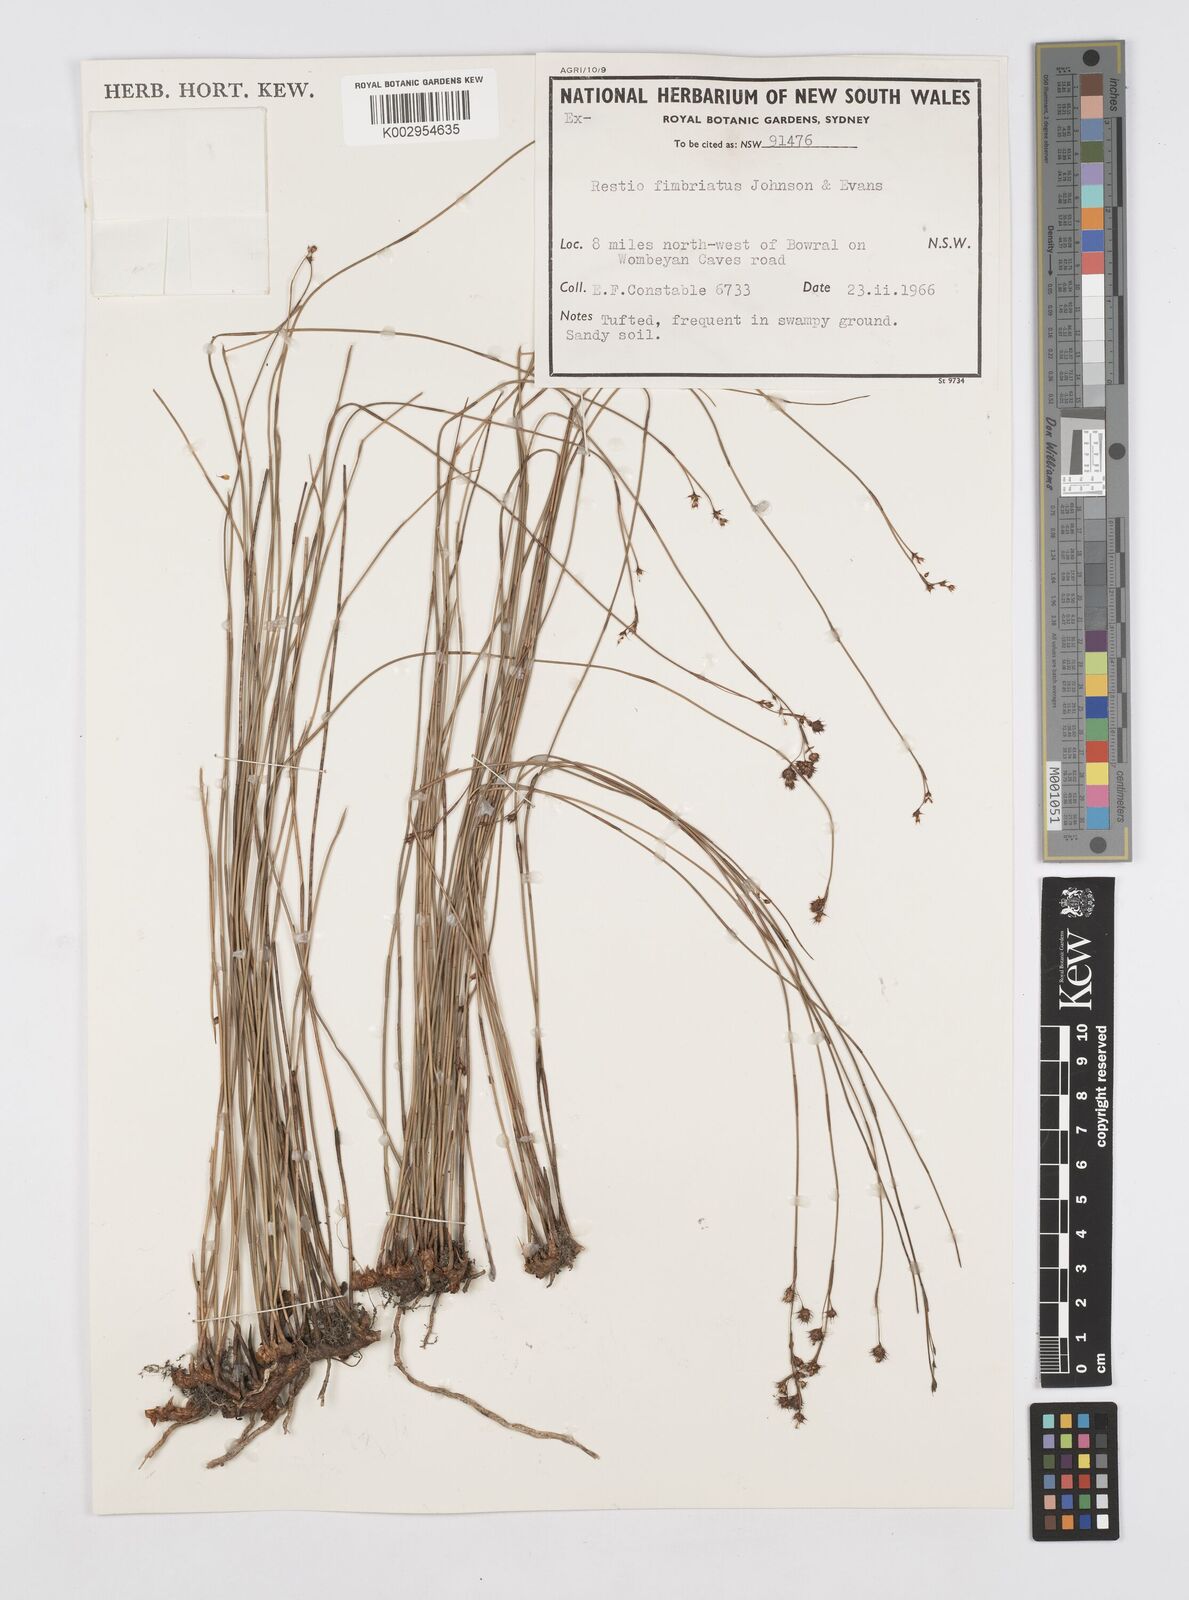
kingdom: Plantae
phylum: Tracheophyta
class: Liliopsida
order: Poales
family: Restionaceae
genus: Baloskion
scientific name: Baloskion fimbriatum
